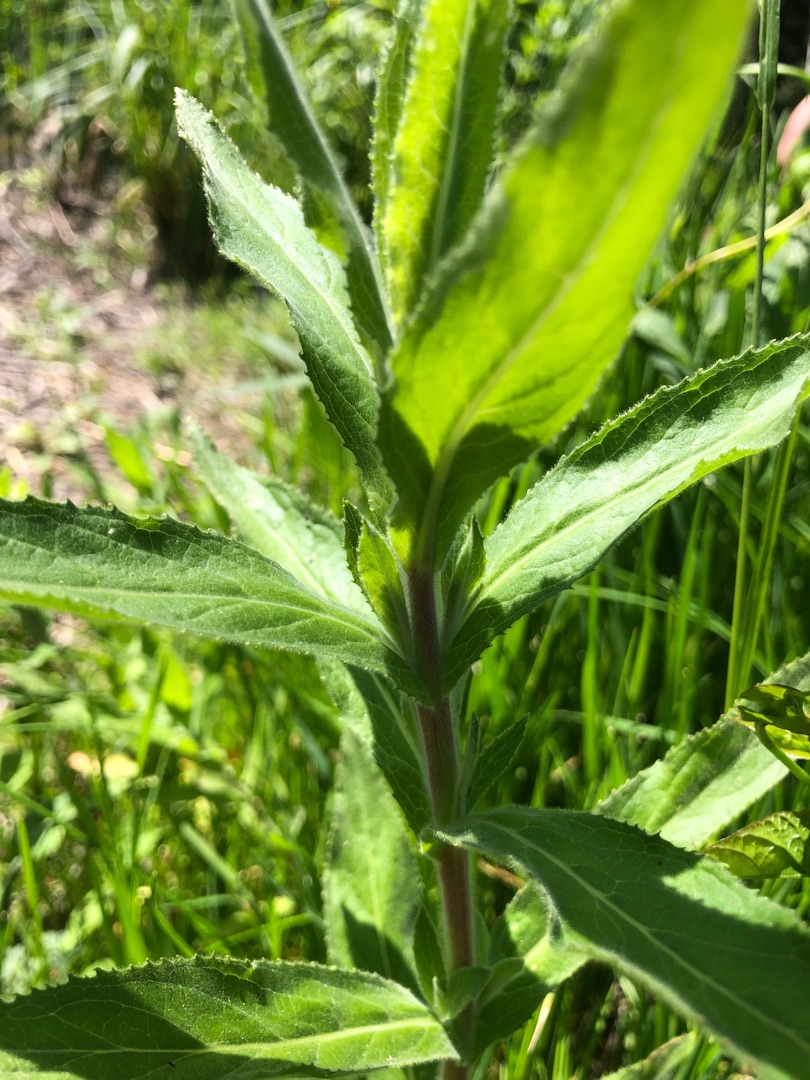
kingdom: Plantae
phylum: Tracheophyta
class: Magnoliopsida
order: Myrtales
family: Onagraceae
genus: Epilobium
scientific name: Epilobium hirsutum
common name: Lådden dueurt
